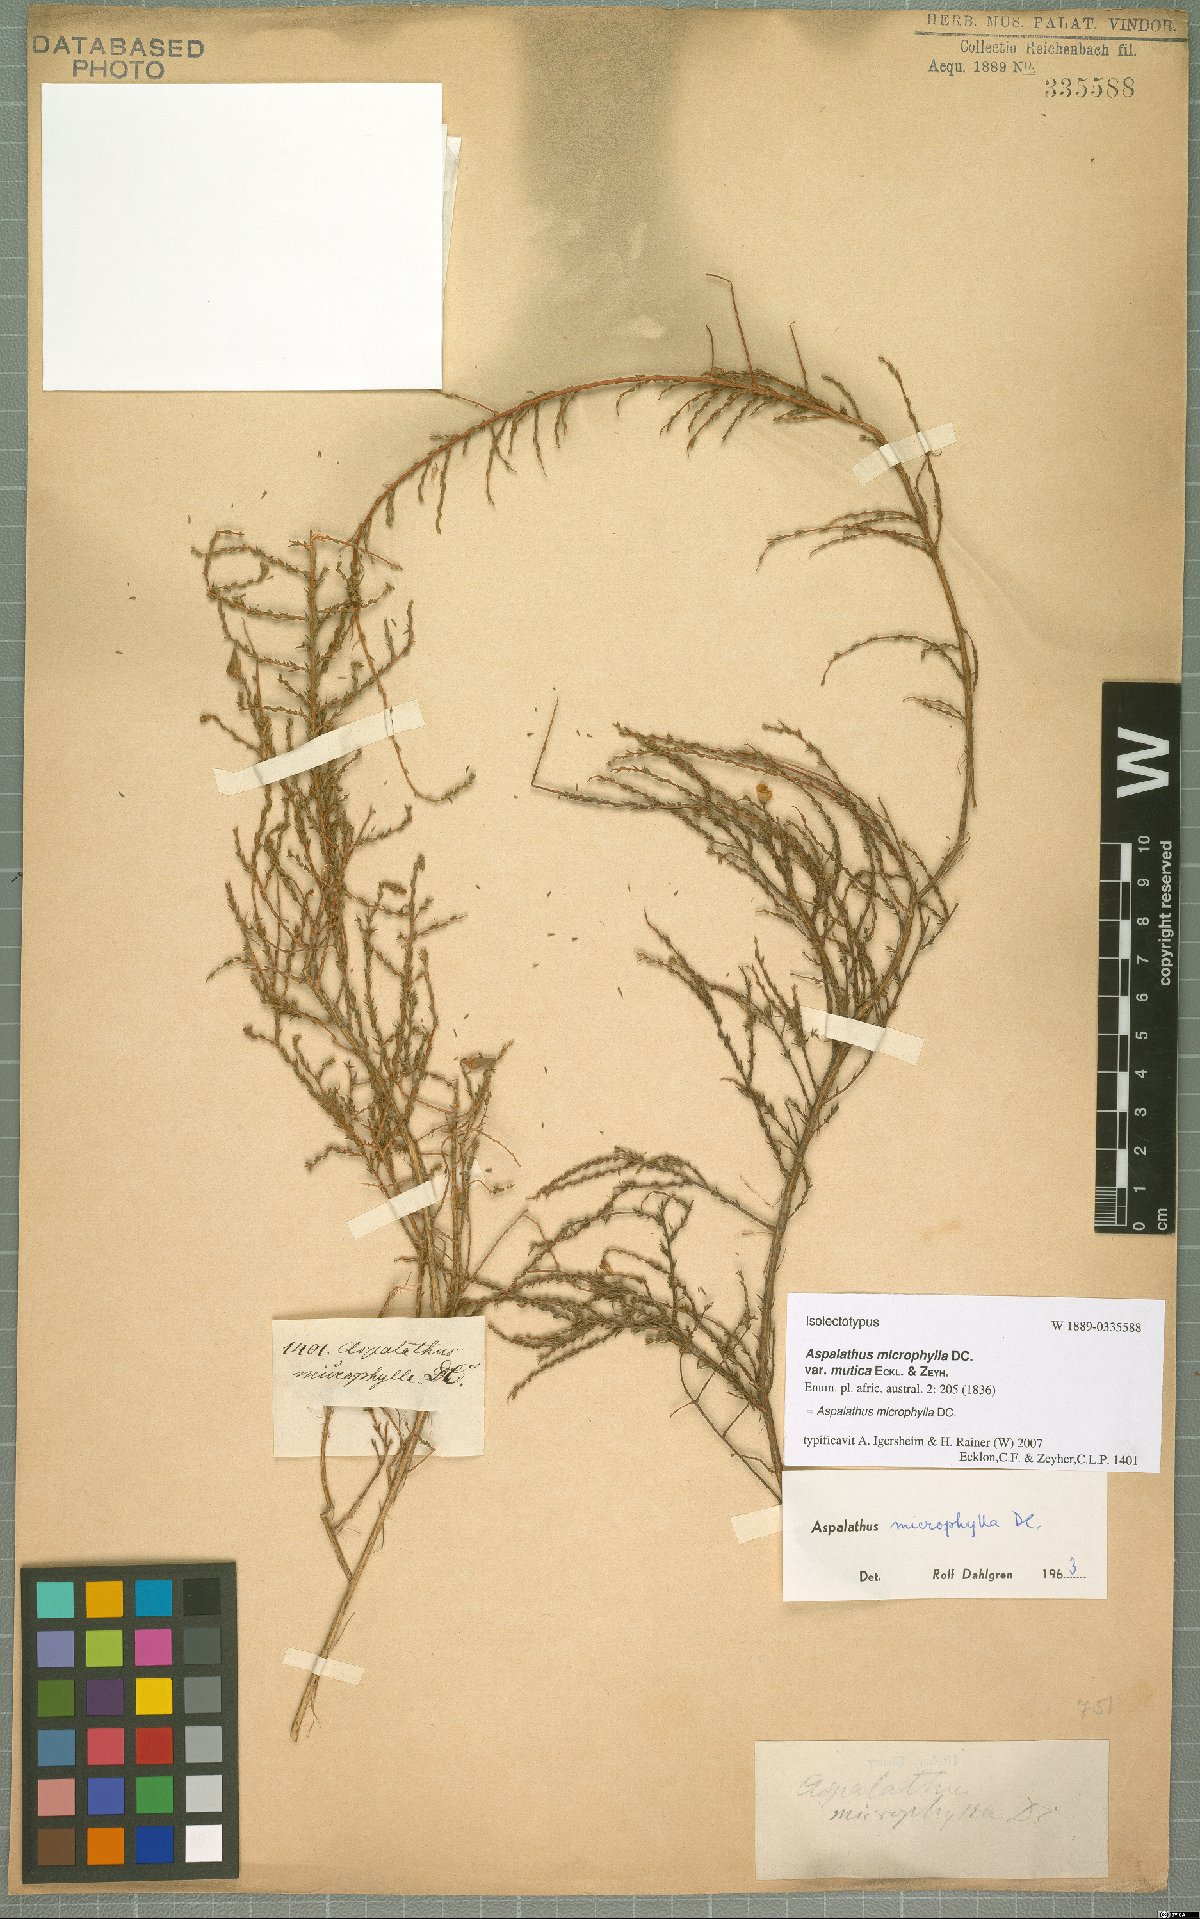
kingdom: Plantae
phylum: Tracheophyta
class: Magnoliopsida
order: Fabales
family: Fabaceae
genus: Aspalathus
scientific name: Aspalathus microphylla
